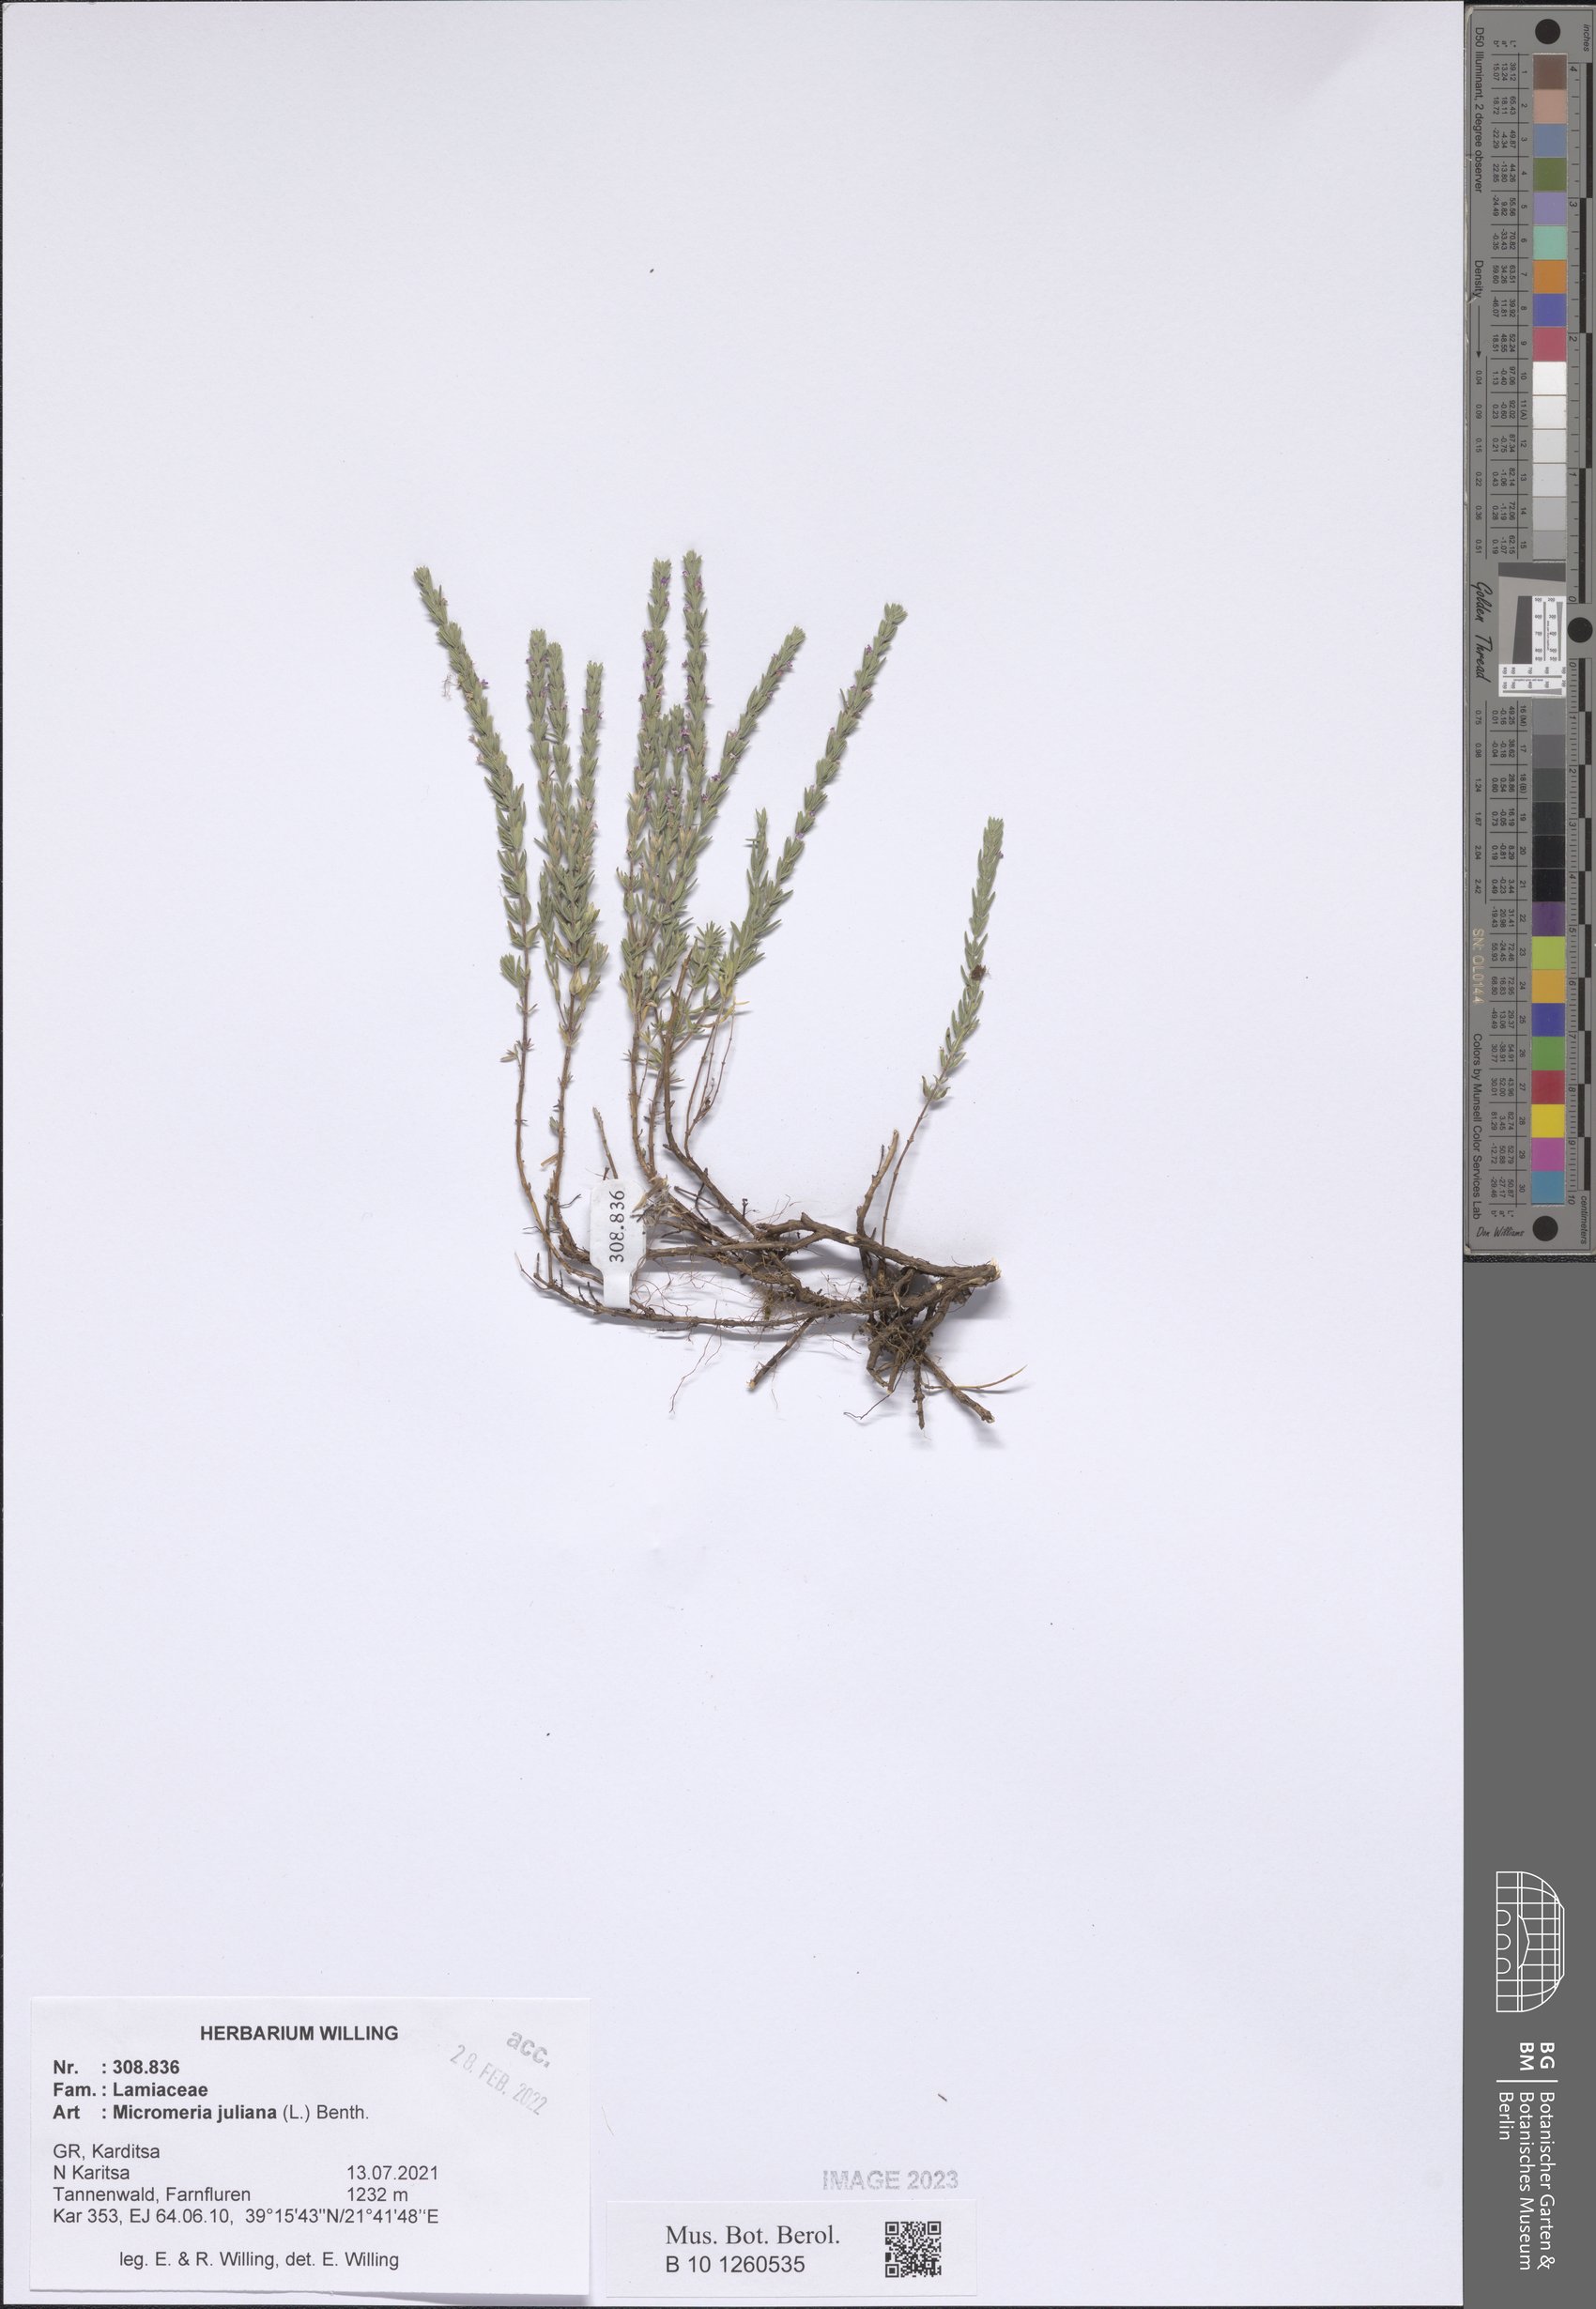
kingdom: Plantae
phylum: Tracheophyta
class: Magnoliopsida
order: Lamiales
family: Lamiaceae
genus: Micromeria
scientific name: Micromeria juliana
